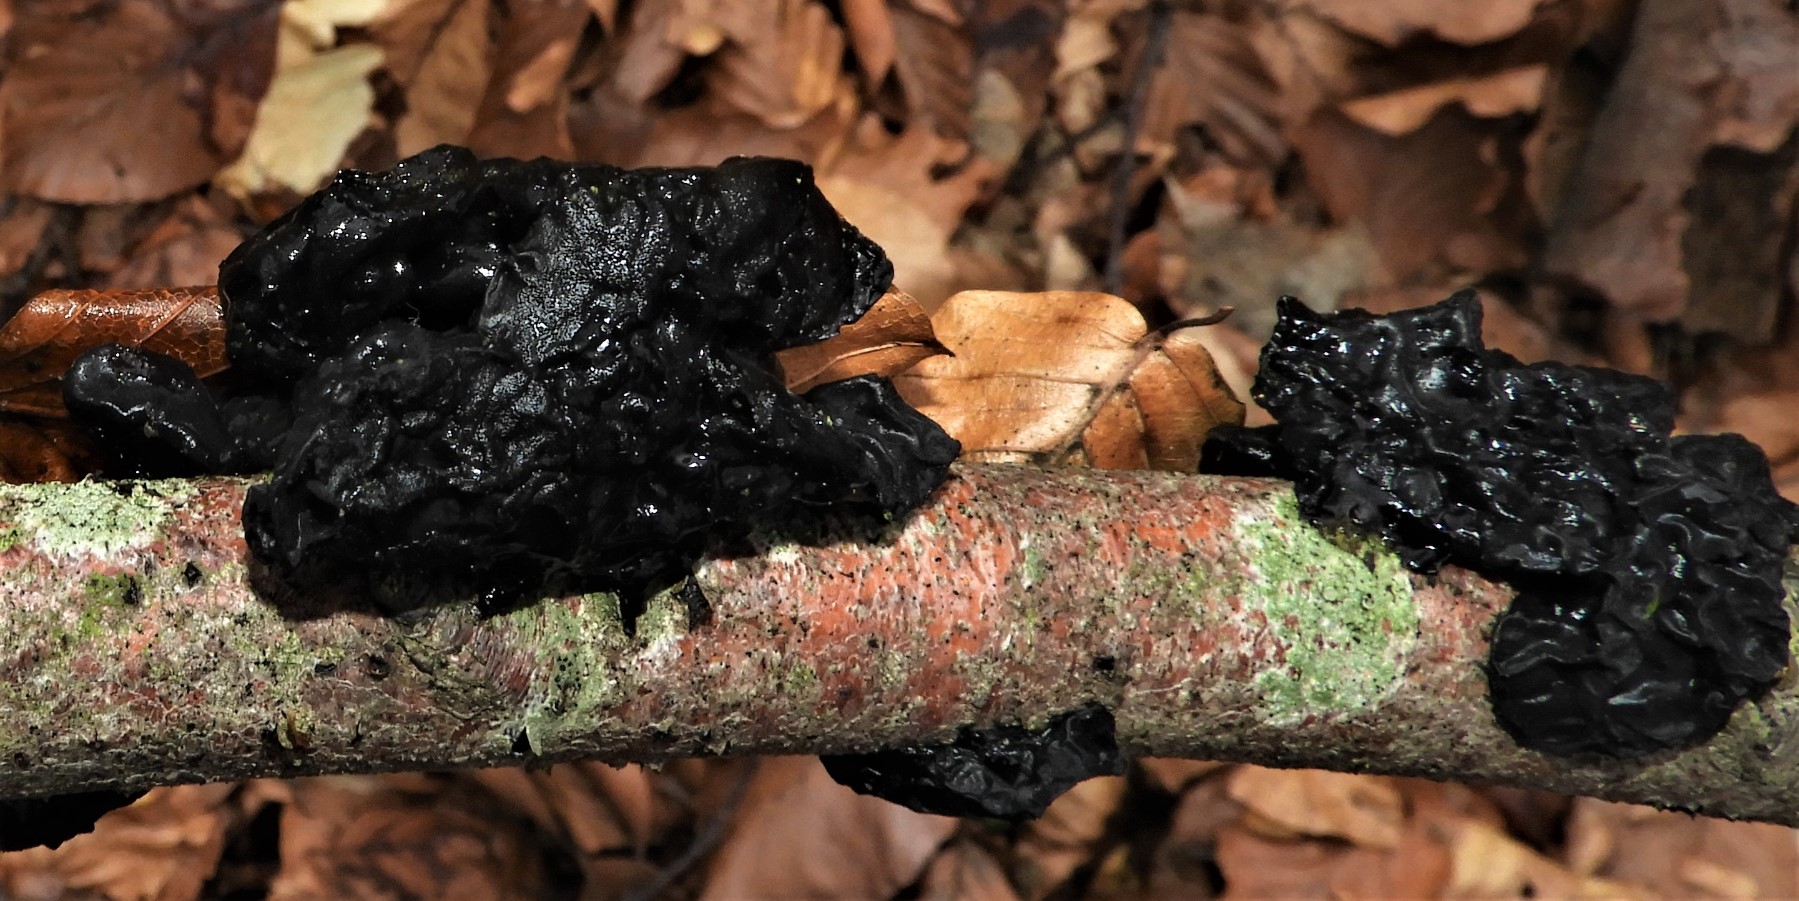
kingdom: Fungi
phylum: Basidiomycota
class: Agaricomycetes
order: Auriculariales
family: Auriculariaceae
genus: Exidia
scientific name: Exidia glandulosa
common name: ege-bævretop
